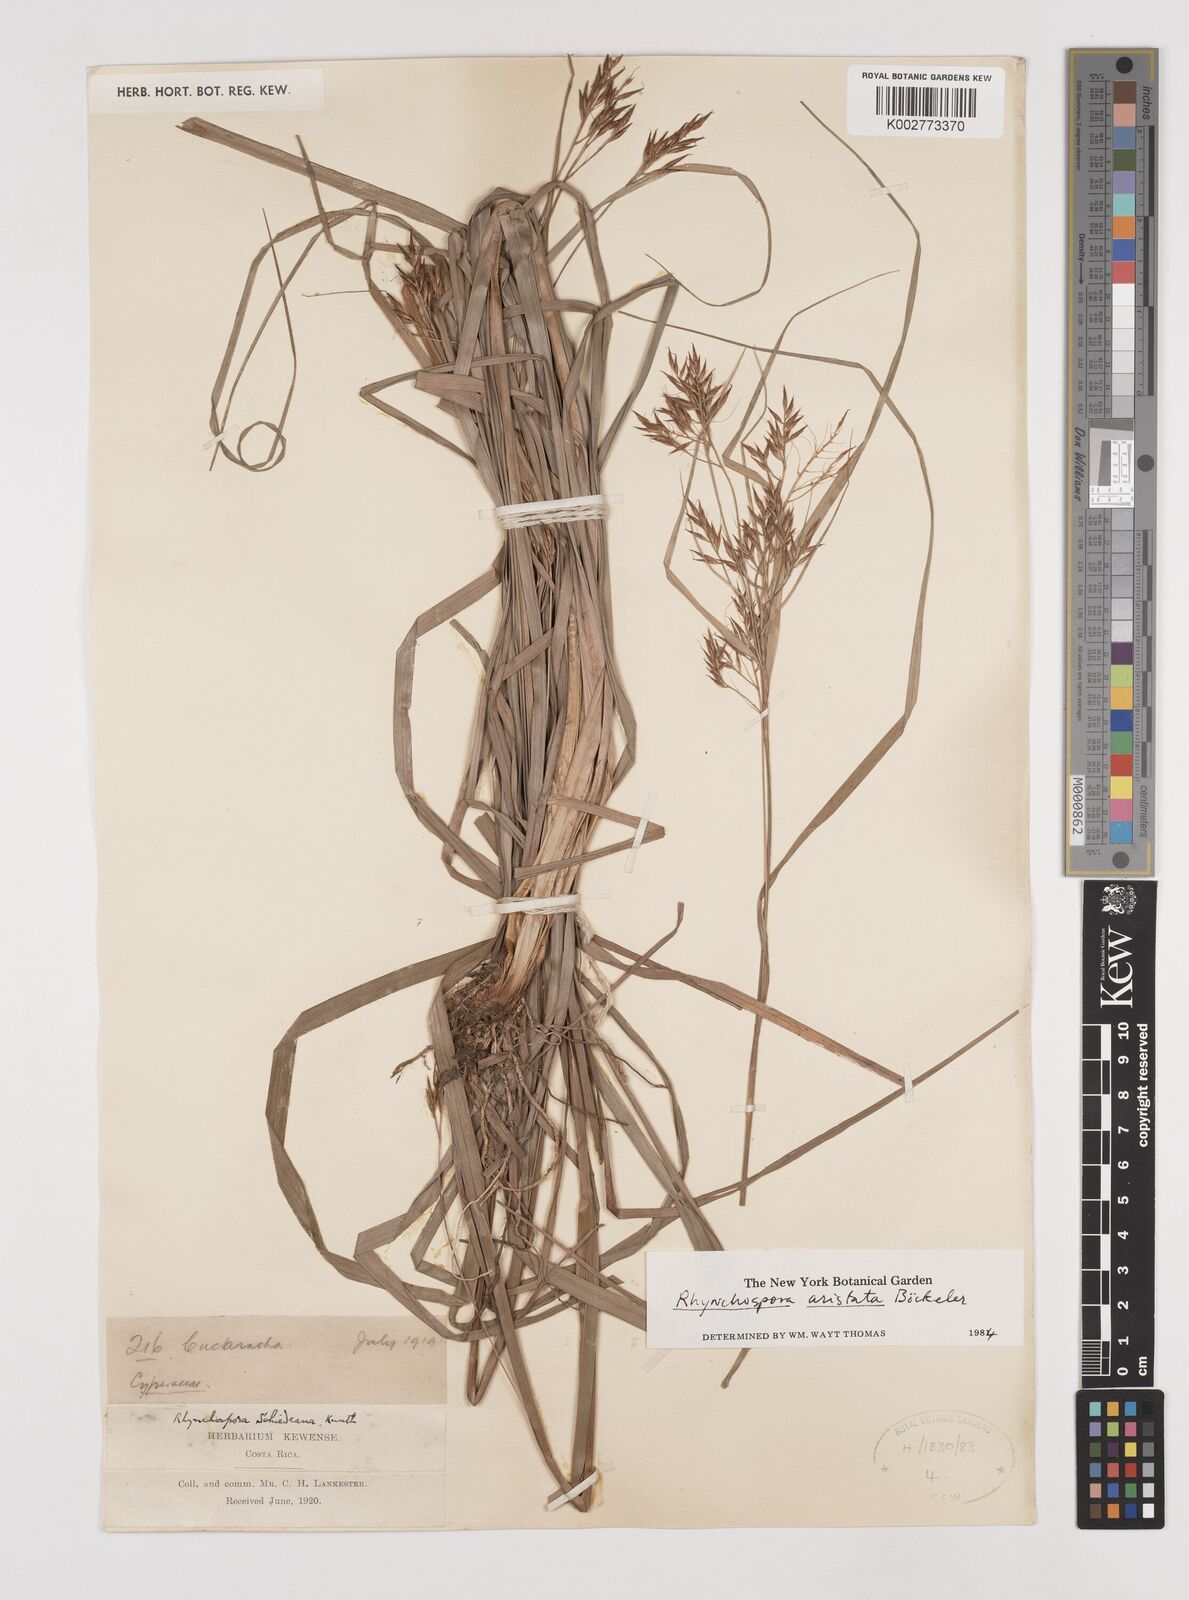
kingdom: Plantae
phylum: Tracheophyta
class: Liliopsida
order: Poales
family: Cyperaceae
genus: Rhynchospora
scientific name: Rhynchospora aristata
